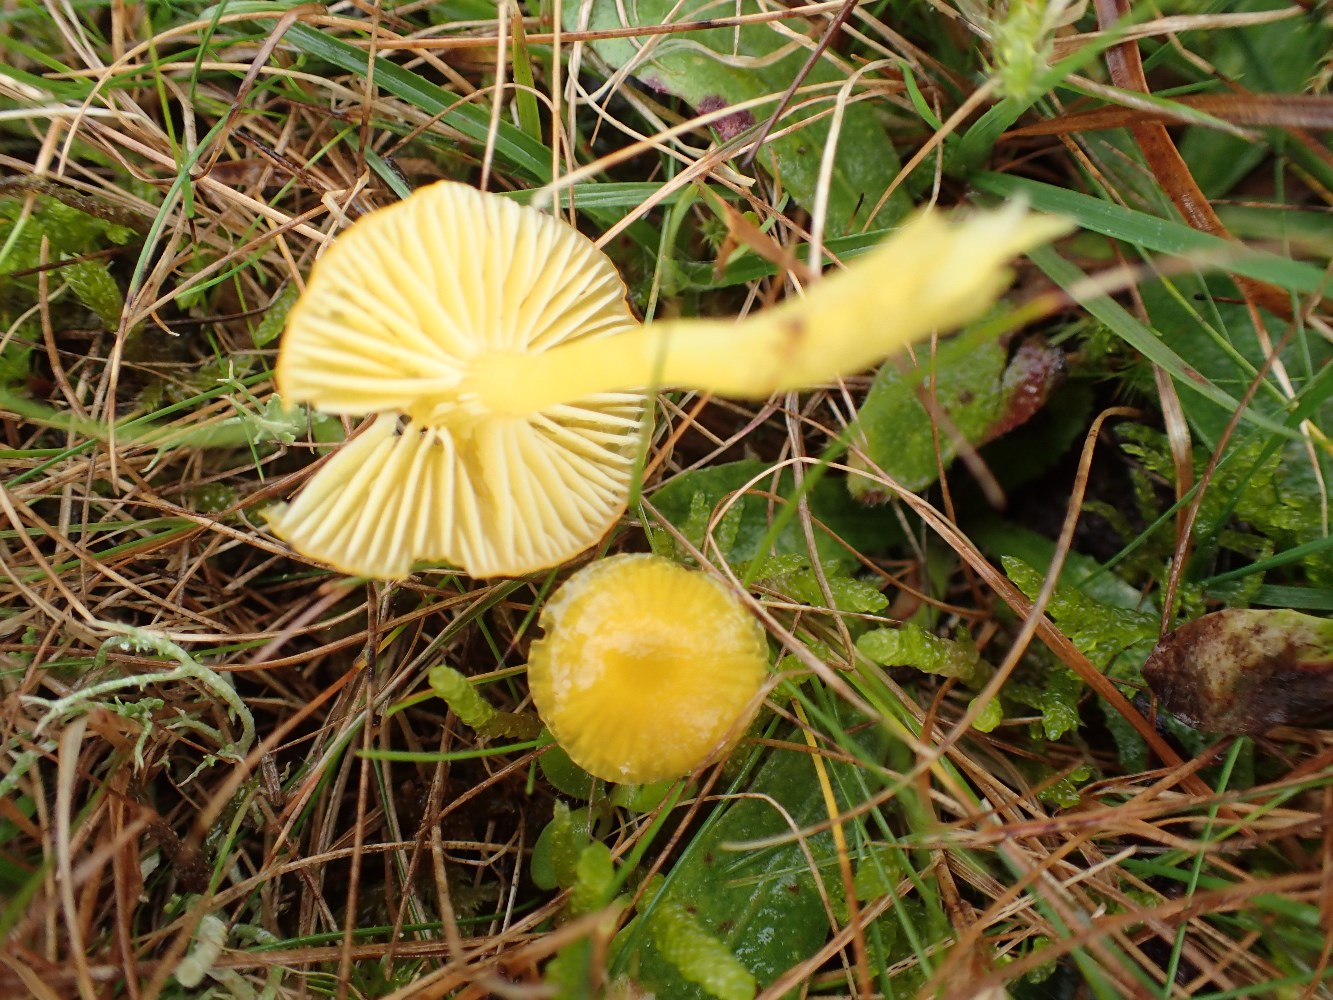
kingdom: Fungi
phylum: Basidiomycota
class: Agaricomycetes
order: Agaricales
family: Hygrophoraceae
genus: Hygrocybe
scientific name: Hygrocybe ceracea
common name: voksgul vokshat
